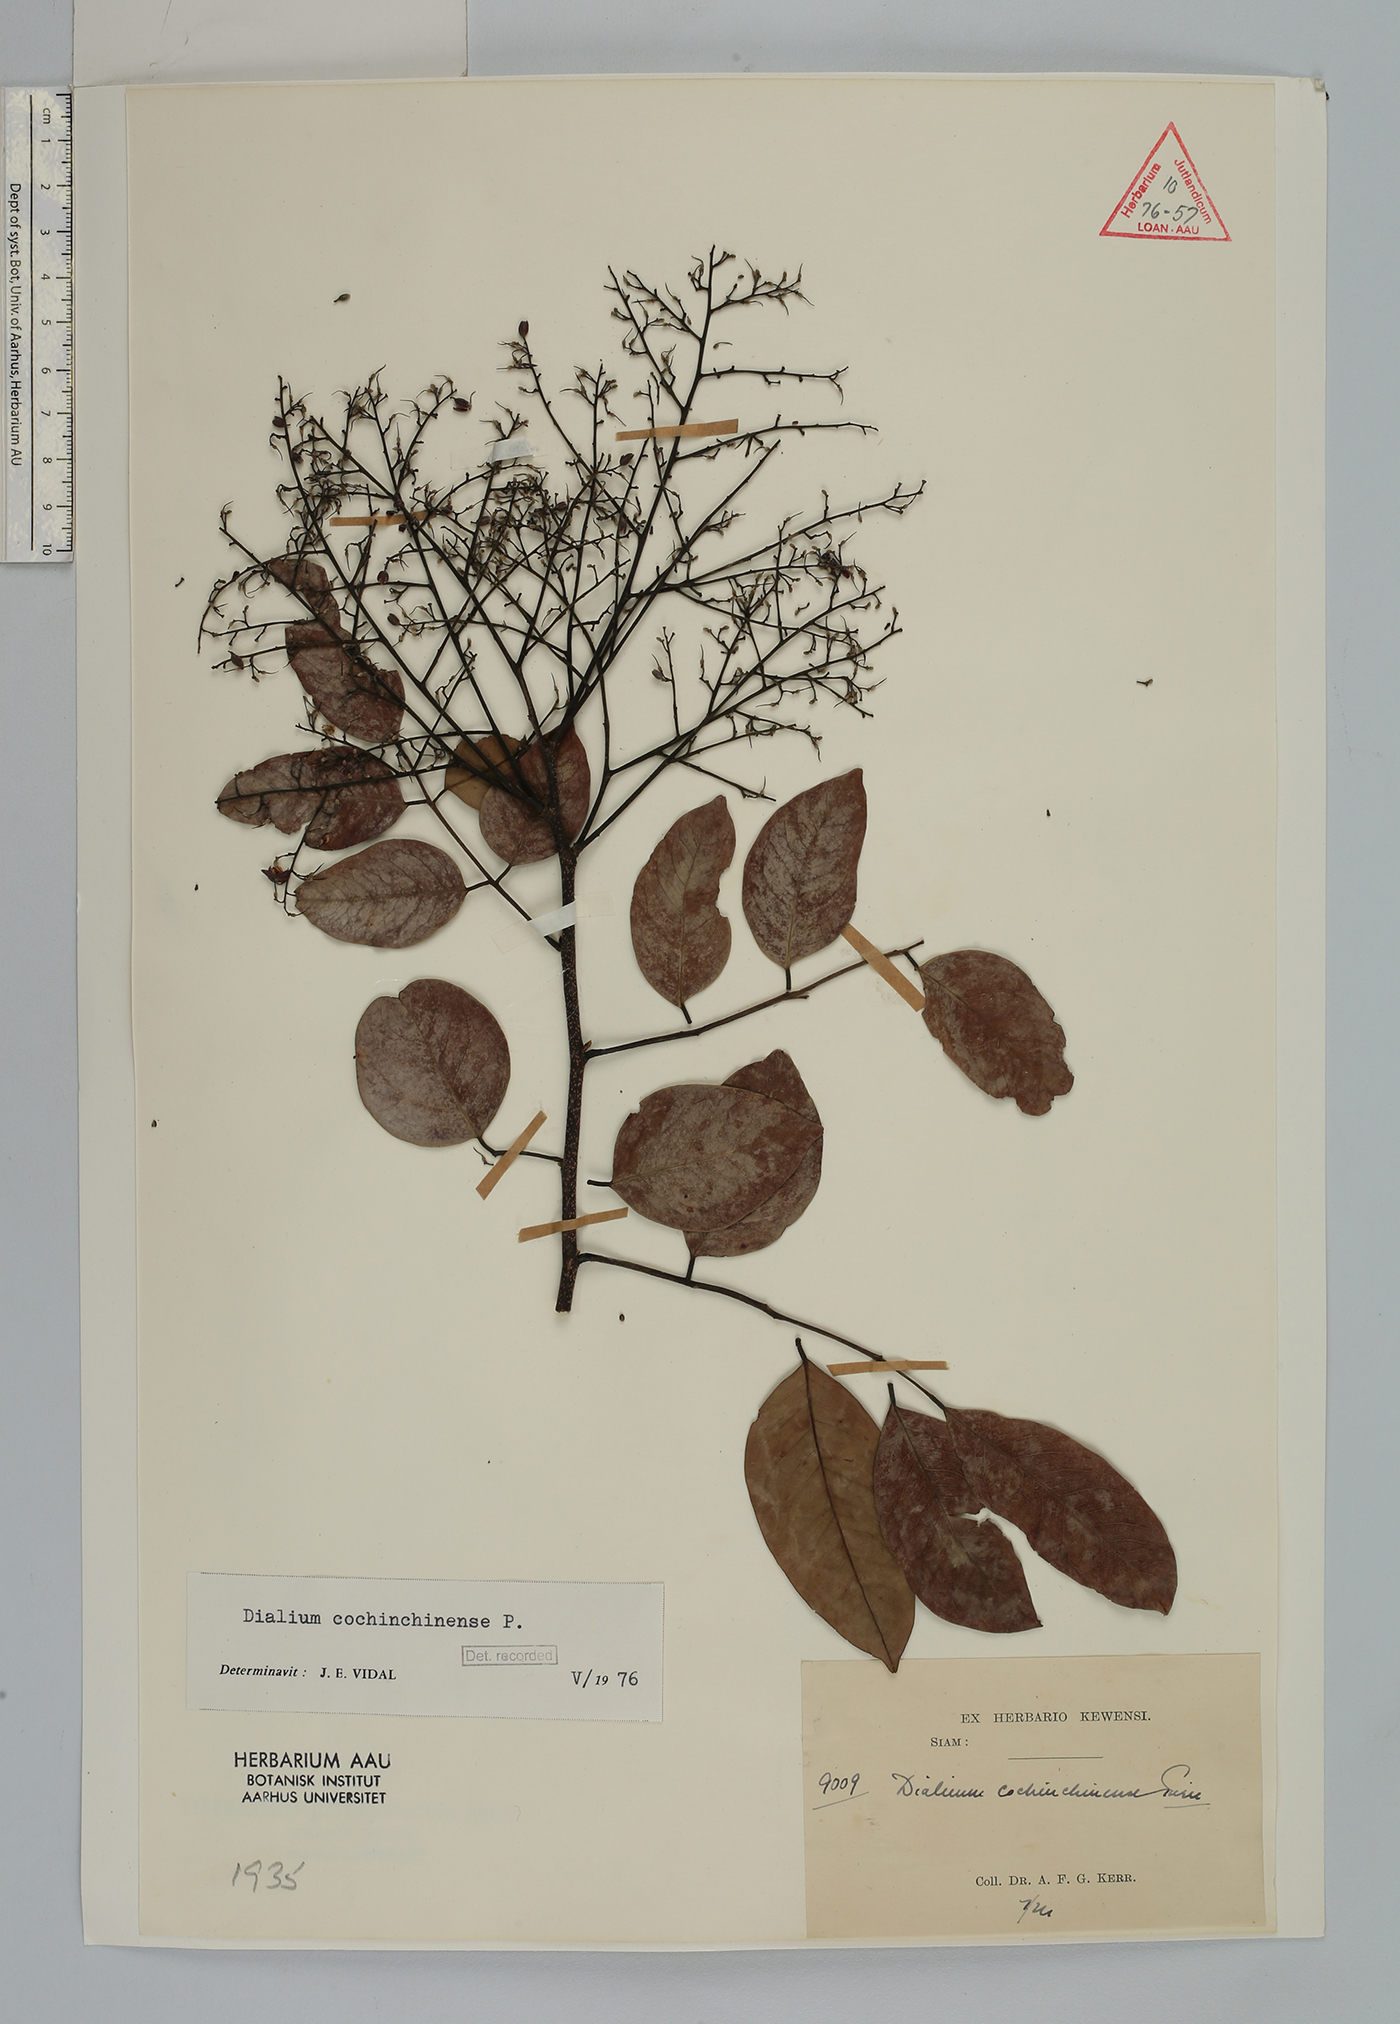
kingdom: Plantae
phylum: Tracheophyta
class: Magnoliopsida
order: Fabales
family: Fabaceae
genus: Dialium
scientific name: Dialium cochinchinense
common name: Velvet tamarind
